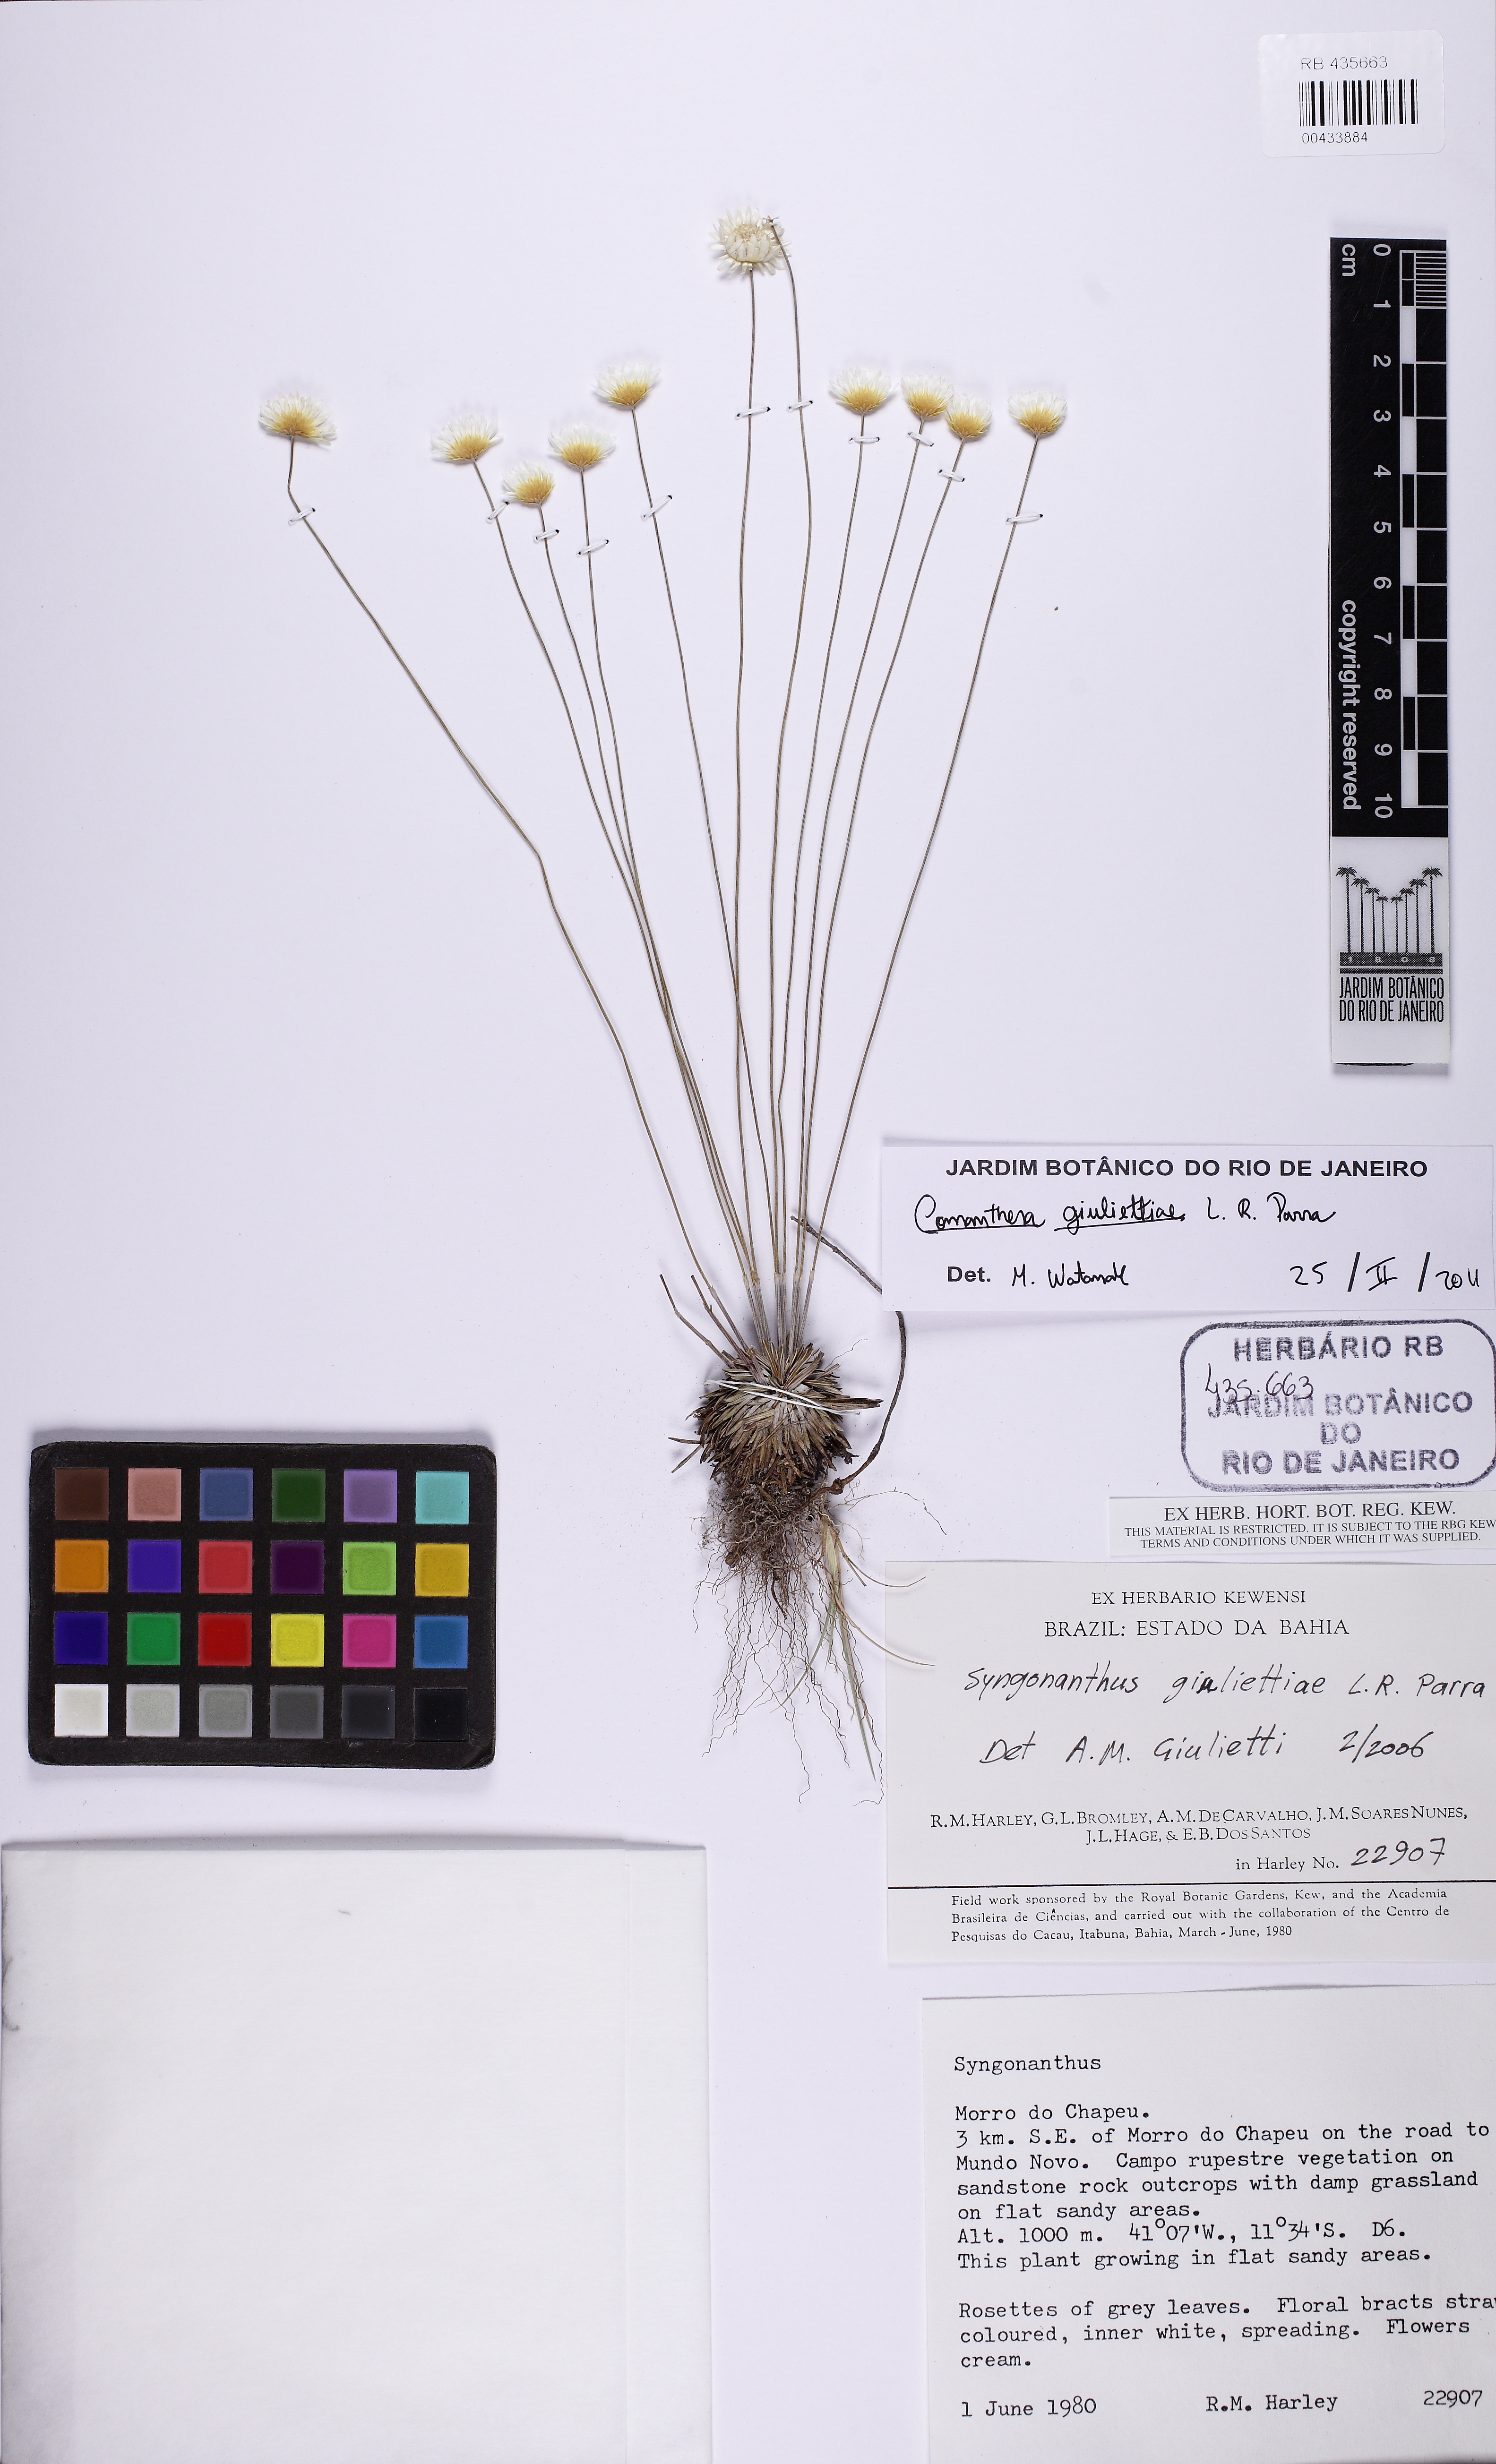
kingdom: Plantae
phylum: Tracheophyta
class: Liliopsida
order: Poales
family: Eriocaulaceae
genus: Comanthera
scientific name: Comanthera giuliettiae
